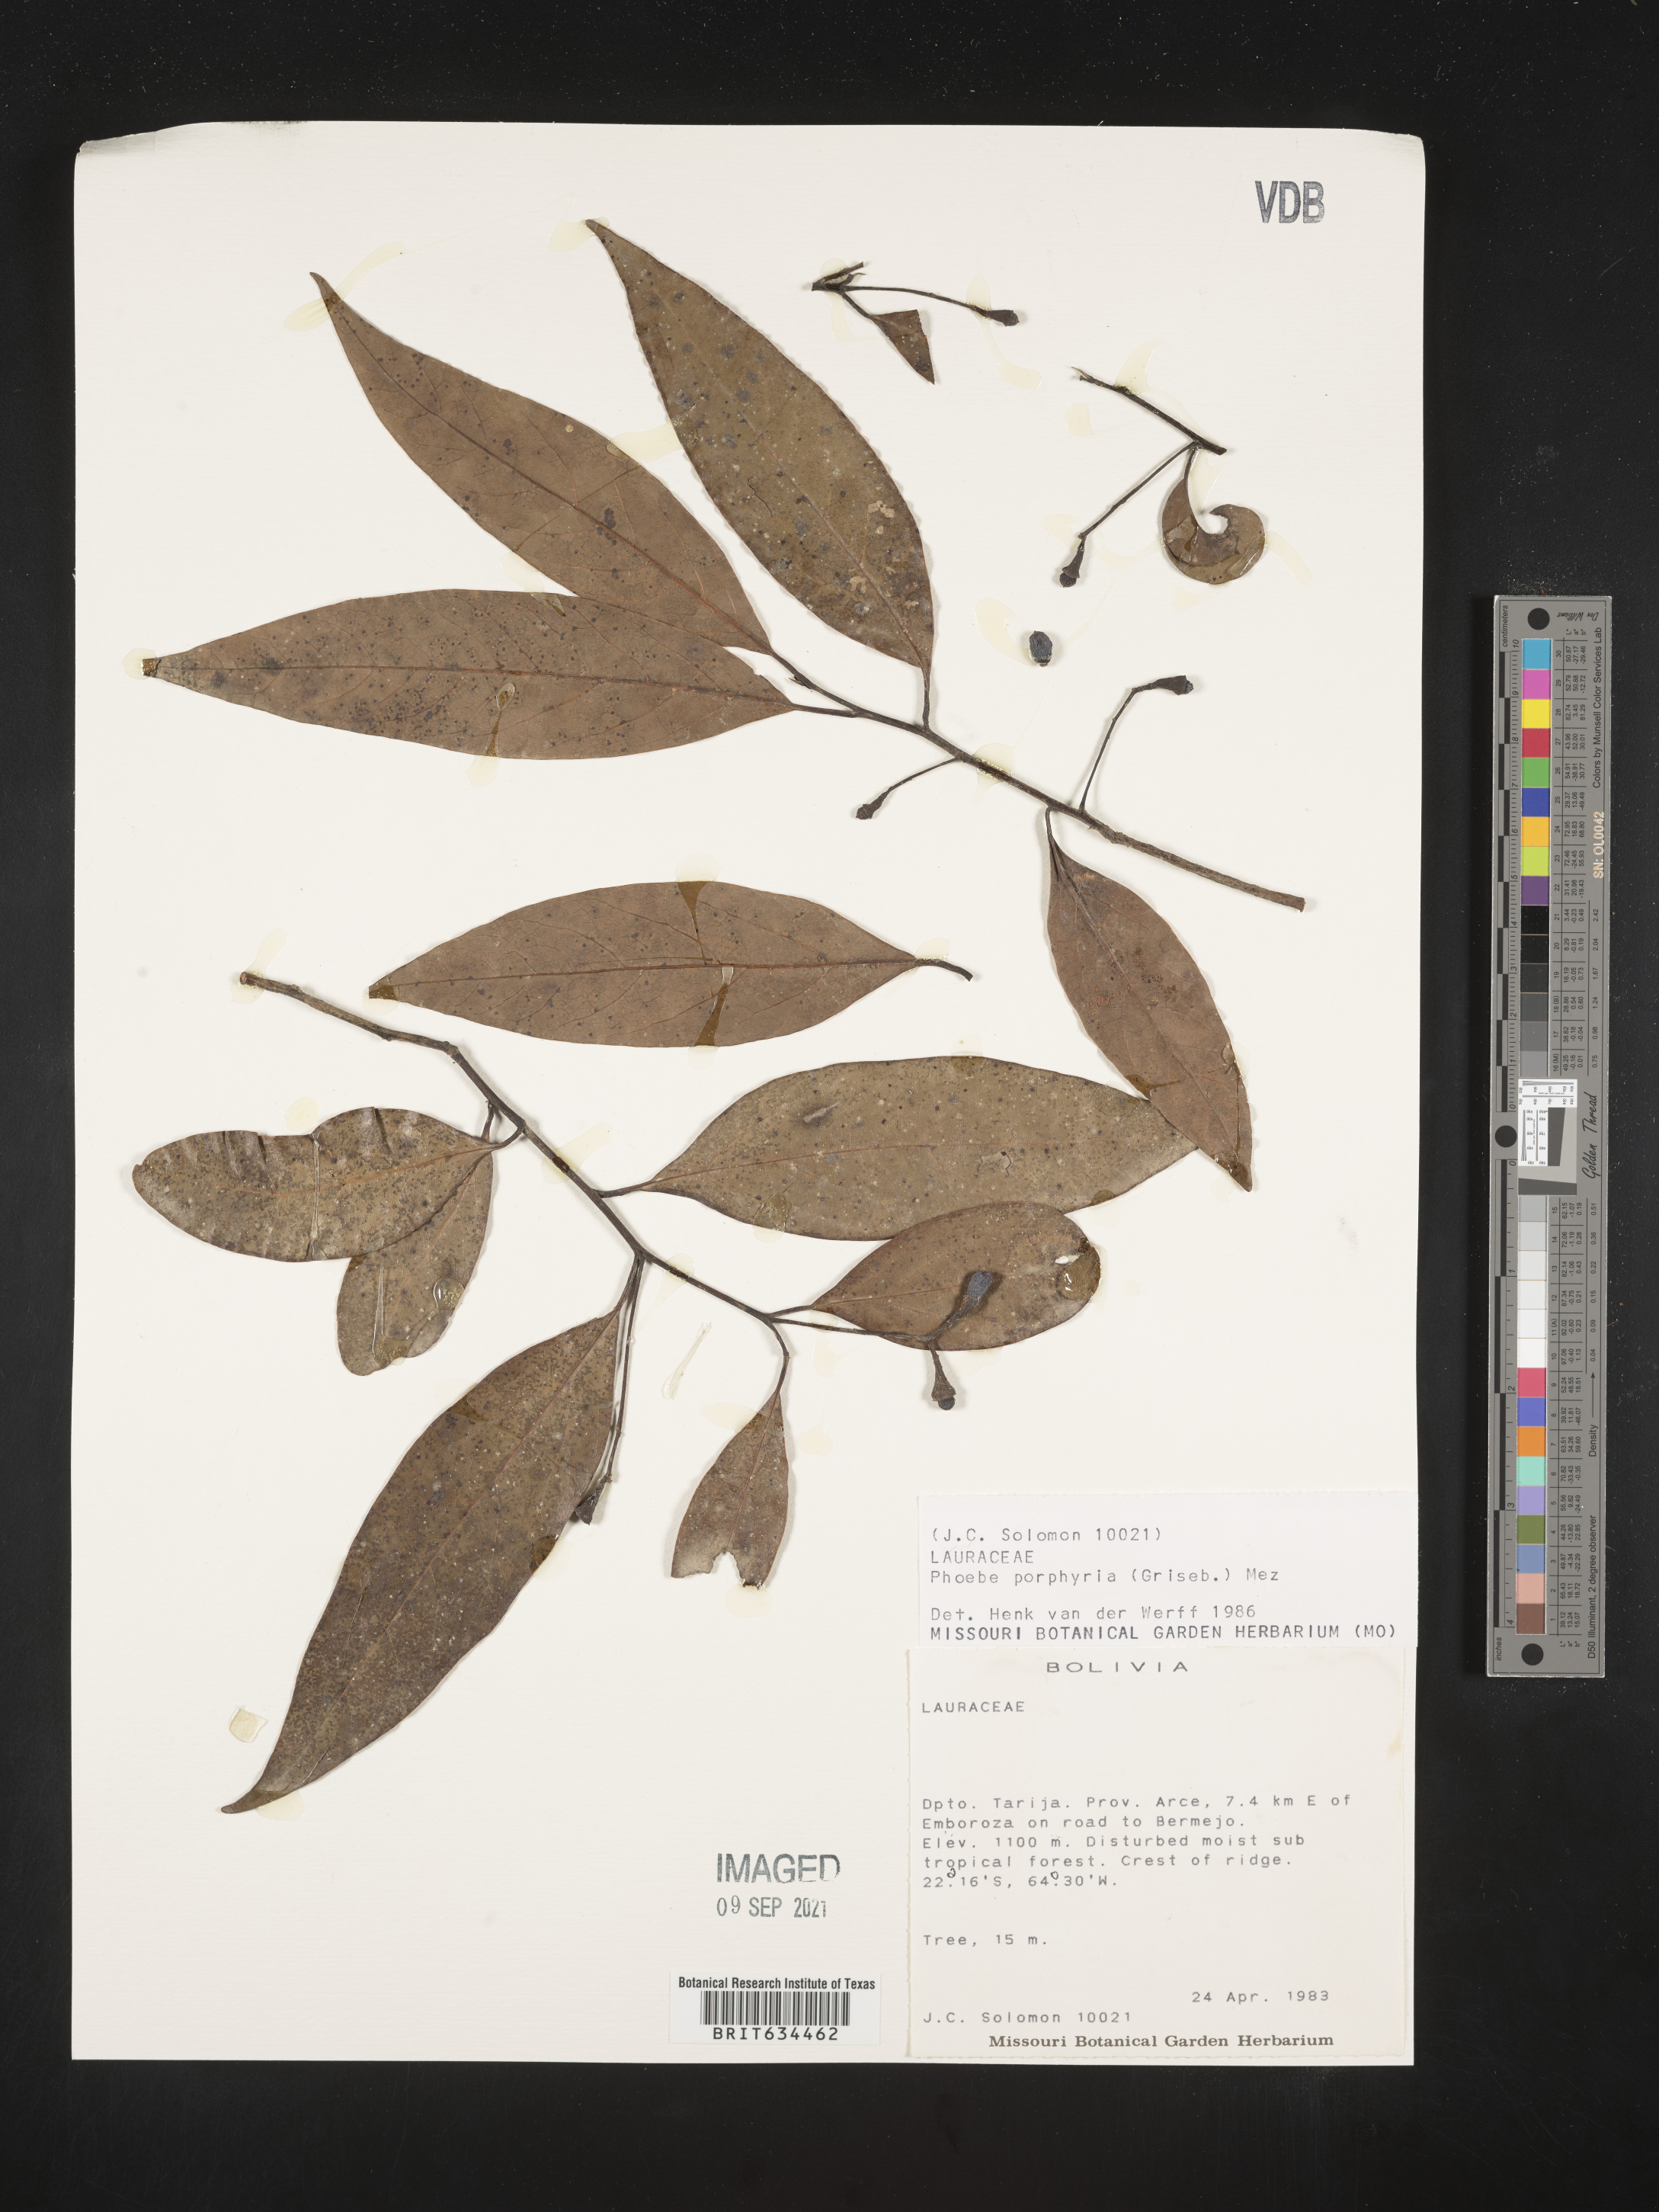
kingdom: Plantae
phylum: Tracheophyta
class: Magnoliopsida
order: Laurales
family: Lauraceae
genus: Phoebe
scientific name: Phoebe
